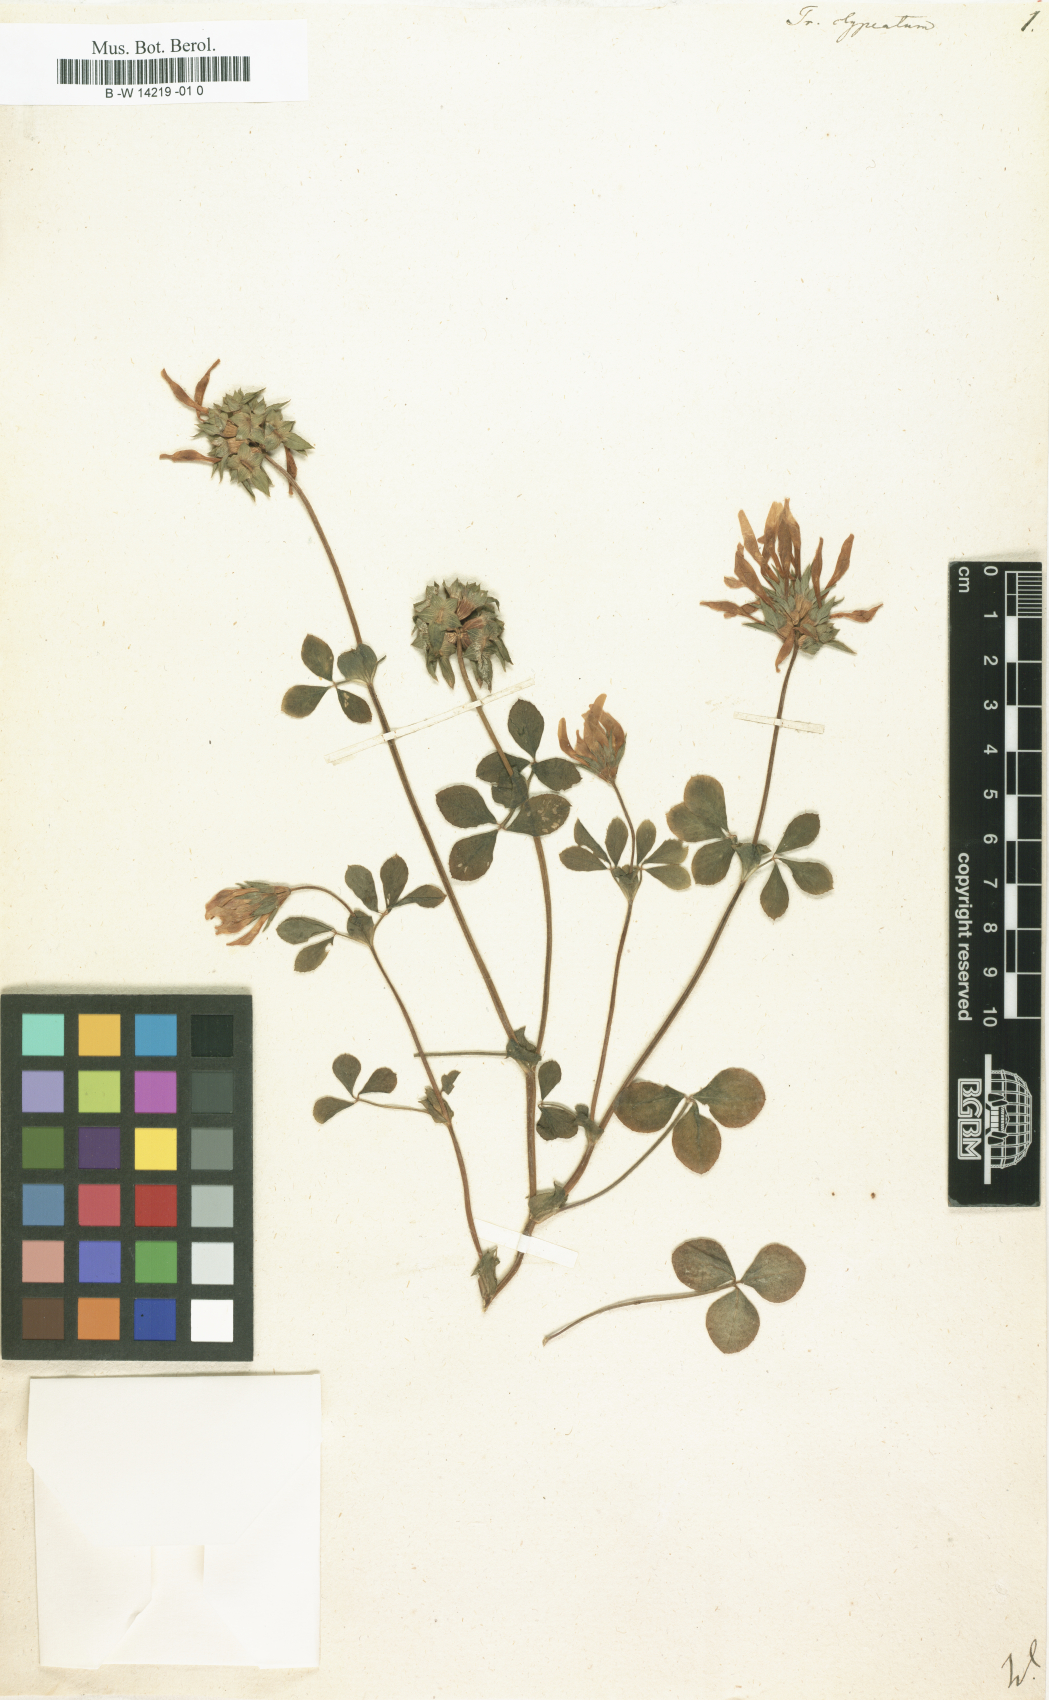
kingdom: Plantae
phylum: Tracheophyta
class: Magnoliopsida
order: Fabales
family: Fabaceae
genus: Trifolium
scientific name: Trifolium squamosum
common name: Sea clover
